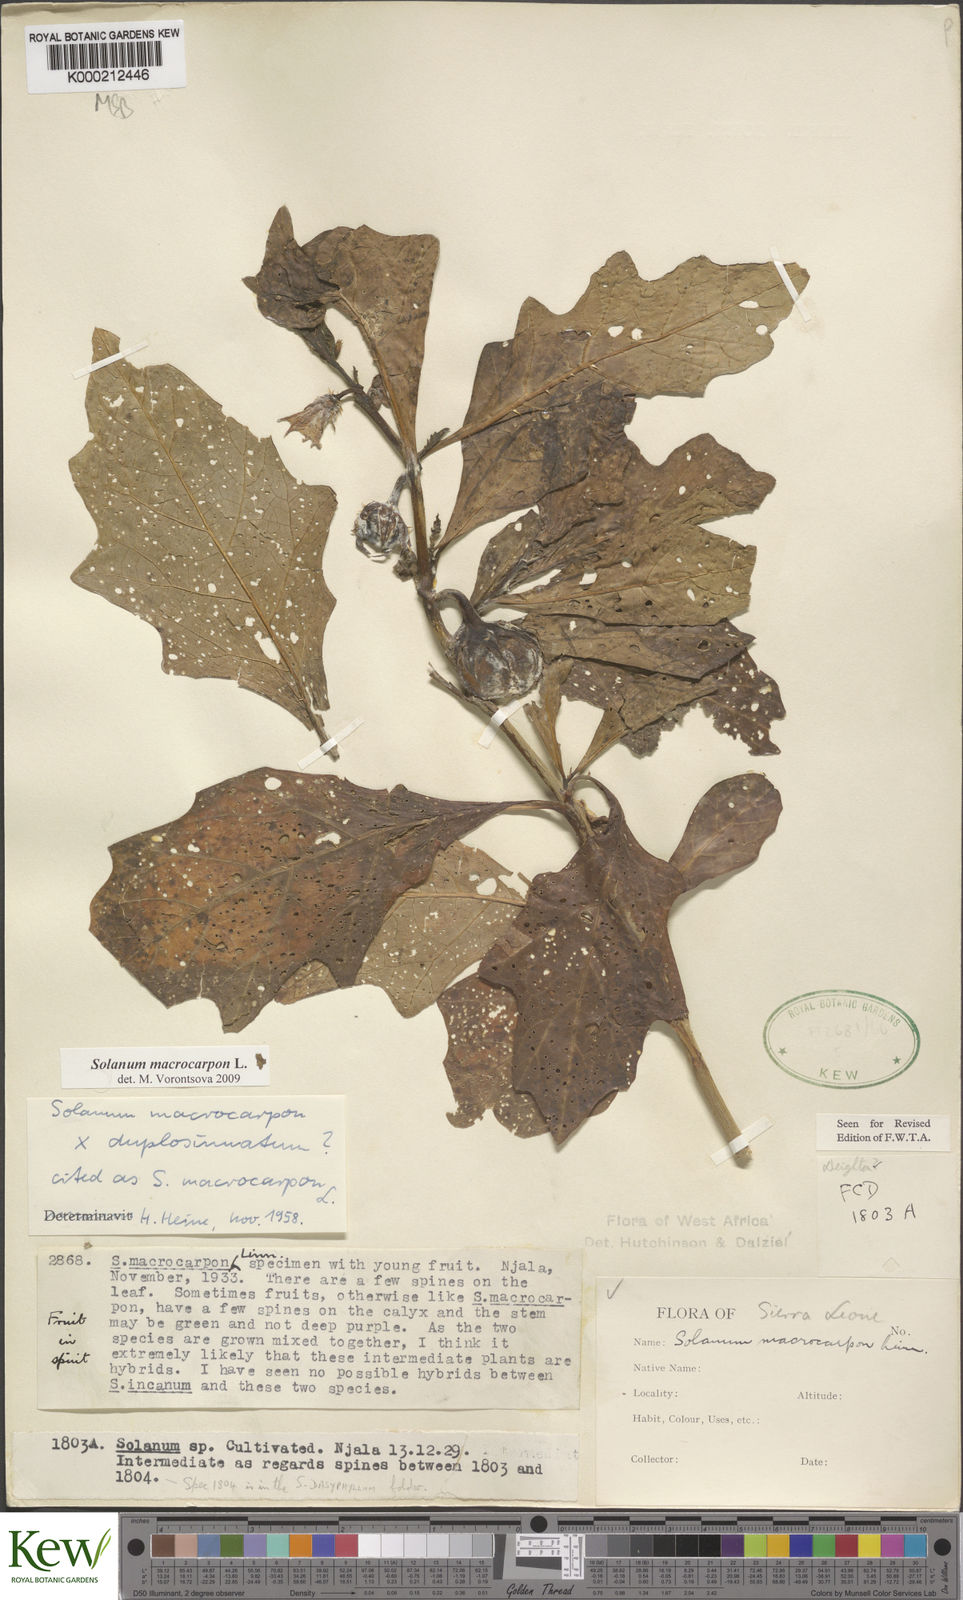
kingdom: Plantae
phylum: Tracheophyta
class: Magnoliopsida
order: Solanales
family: Solanaceae
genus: Solanum
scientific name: Solanum macrocarpon
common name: African eggplant
